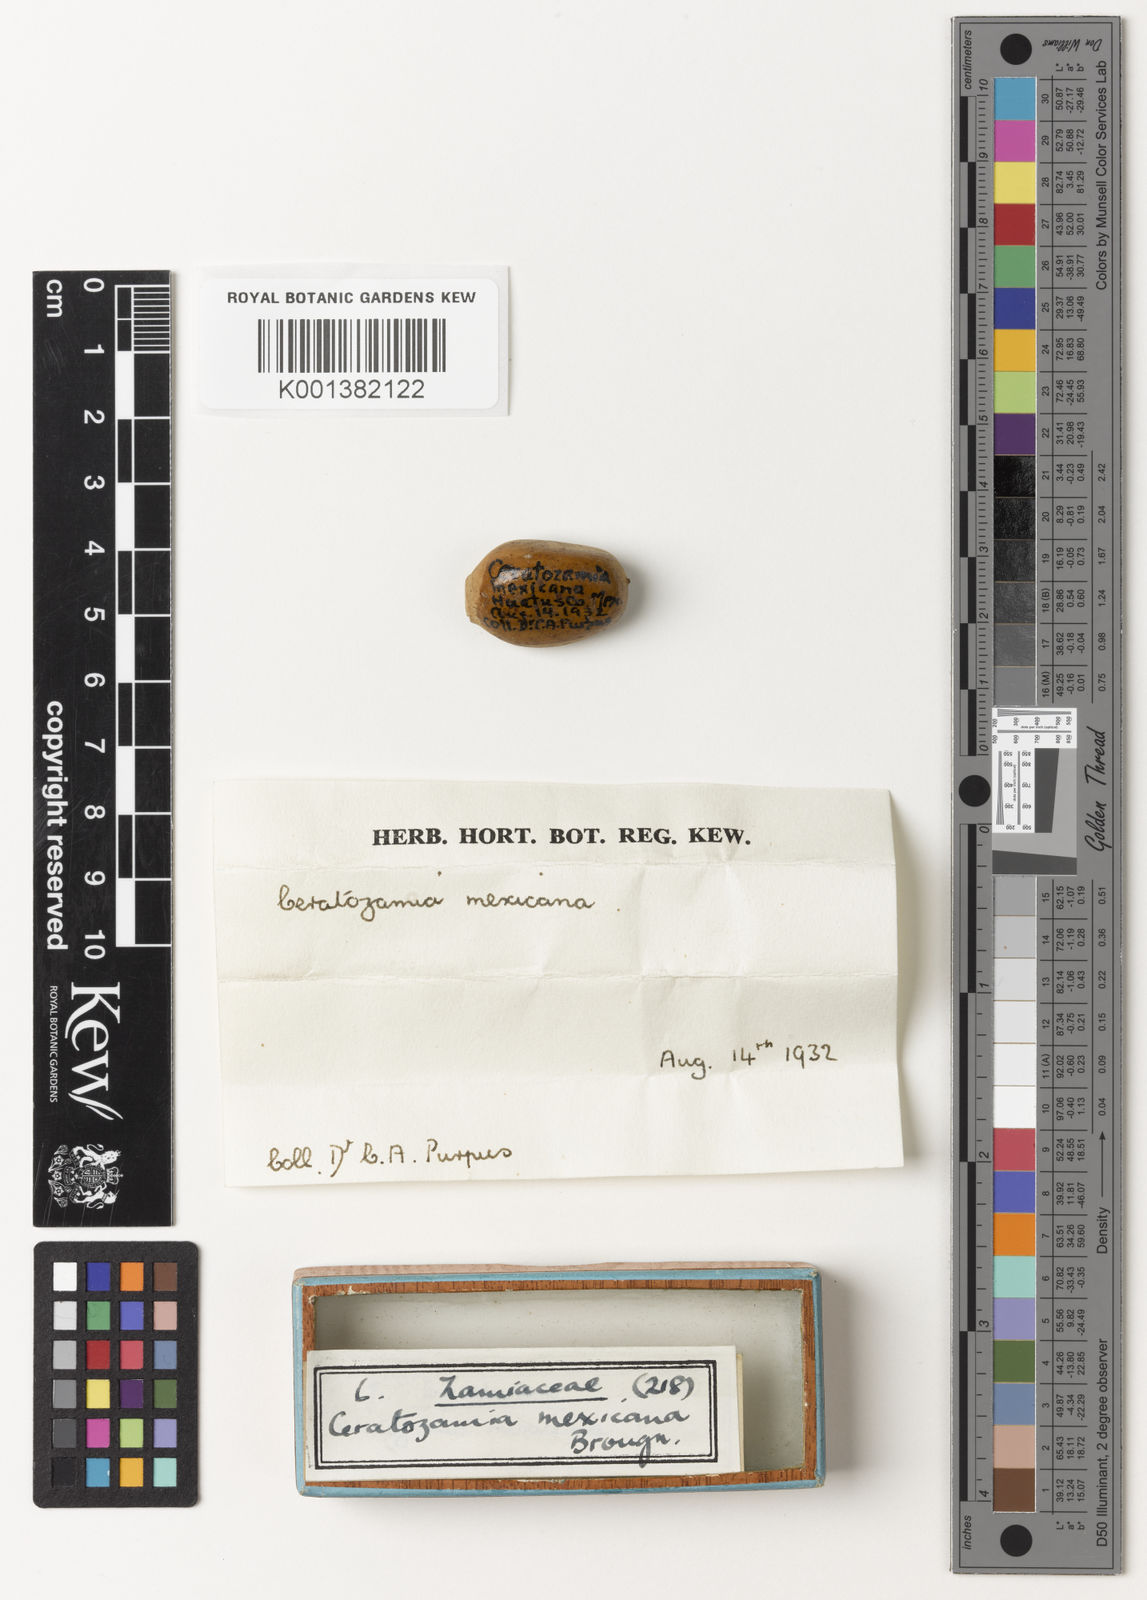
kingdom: Plantae
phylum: Tracheophyta
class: Cycadopsida
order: Cycadales
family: Zamiaceae
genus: Ceratozamia
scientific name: Ceratozamia mexicana
